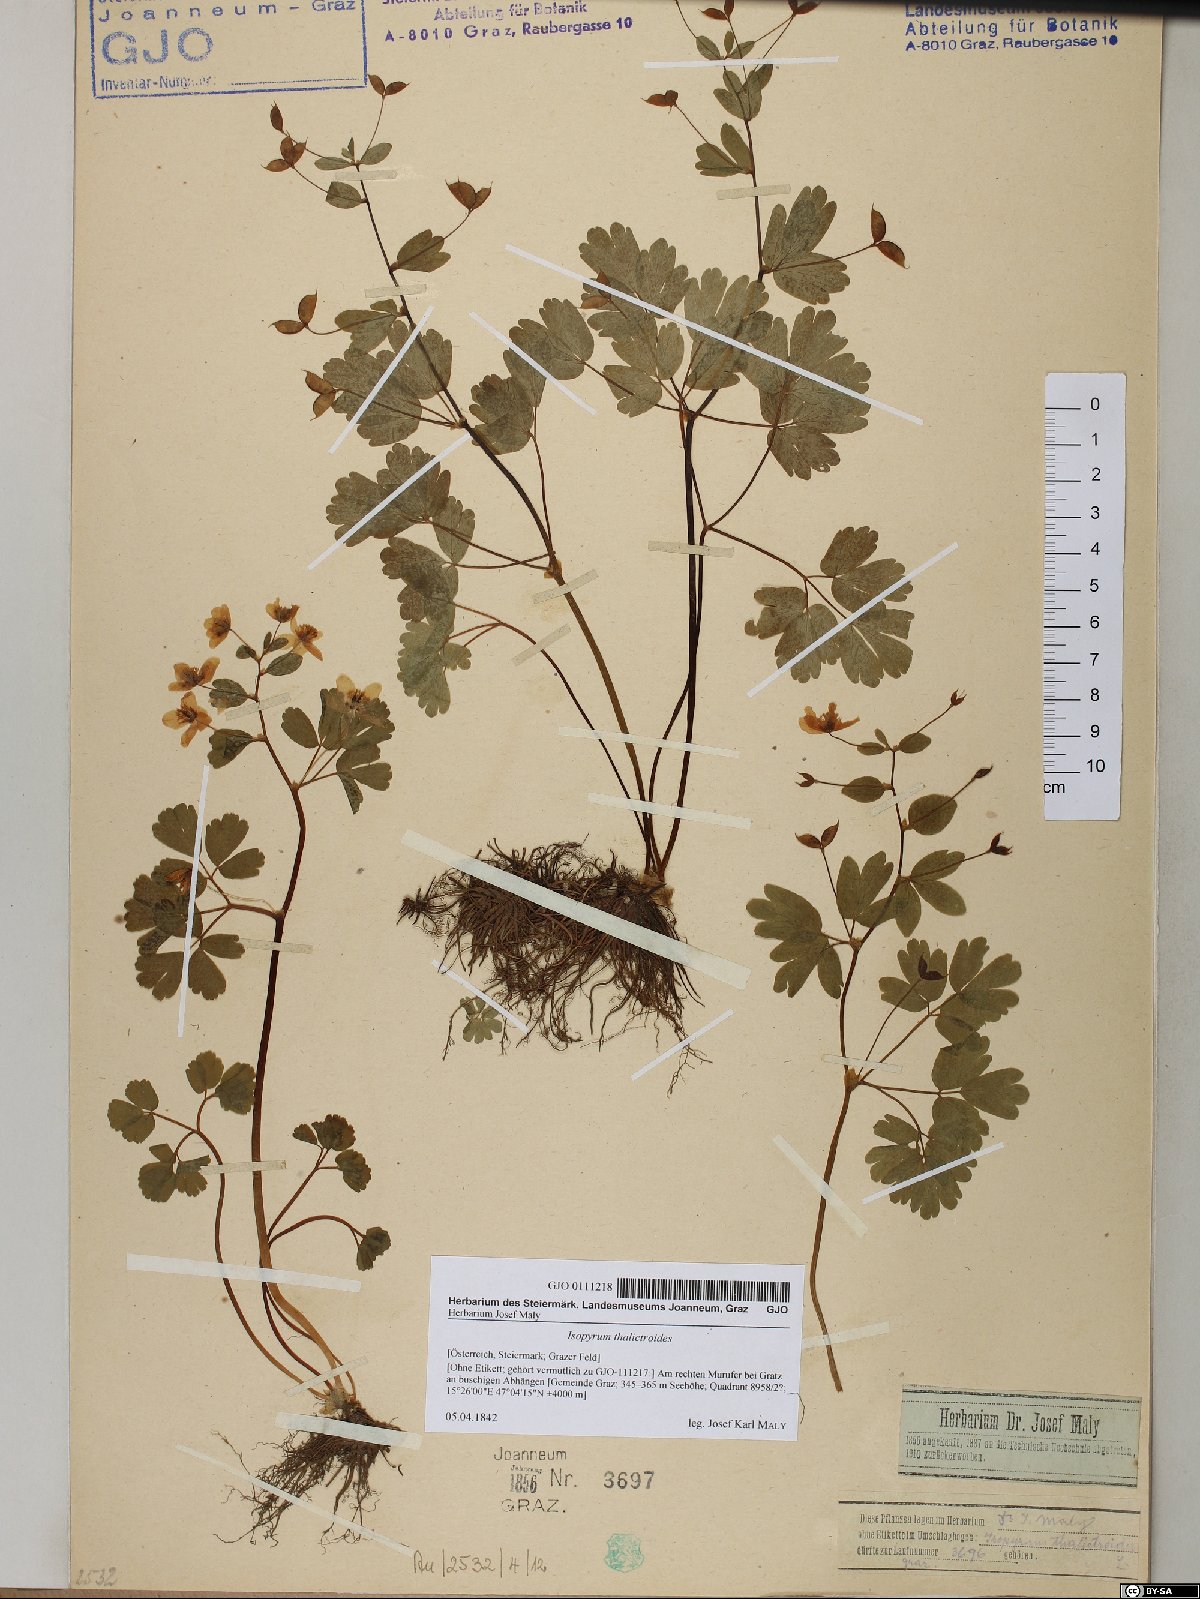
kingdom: Plantae
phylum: Tracheophyta
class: Magnoliopsida
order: Ranunculales
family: Ranunculaceae
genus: Isopyrum
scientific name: Isopyrum thalictroides
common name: Isopyrum
